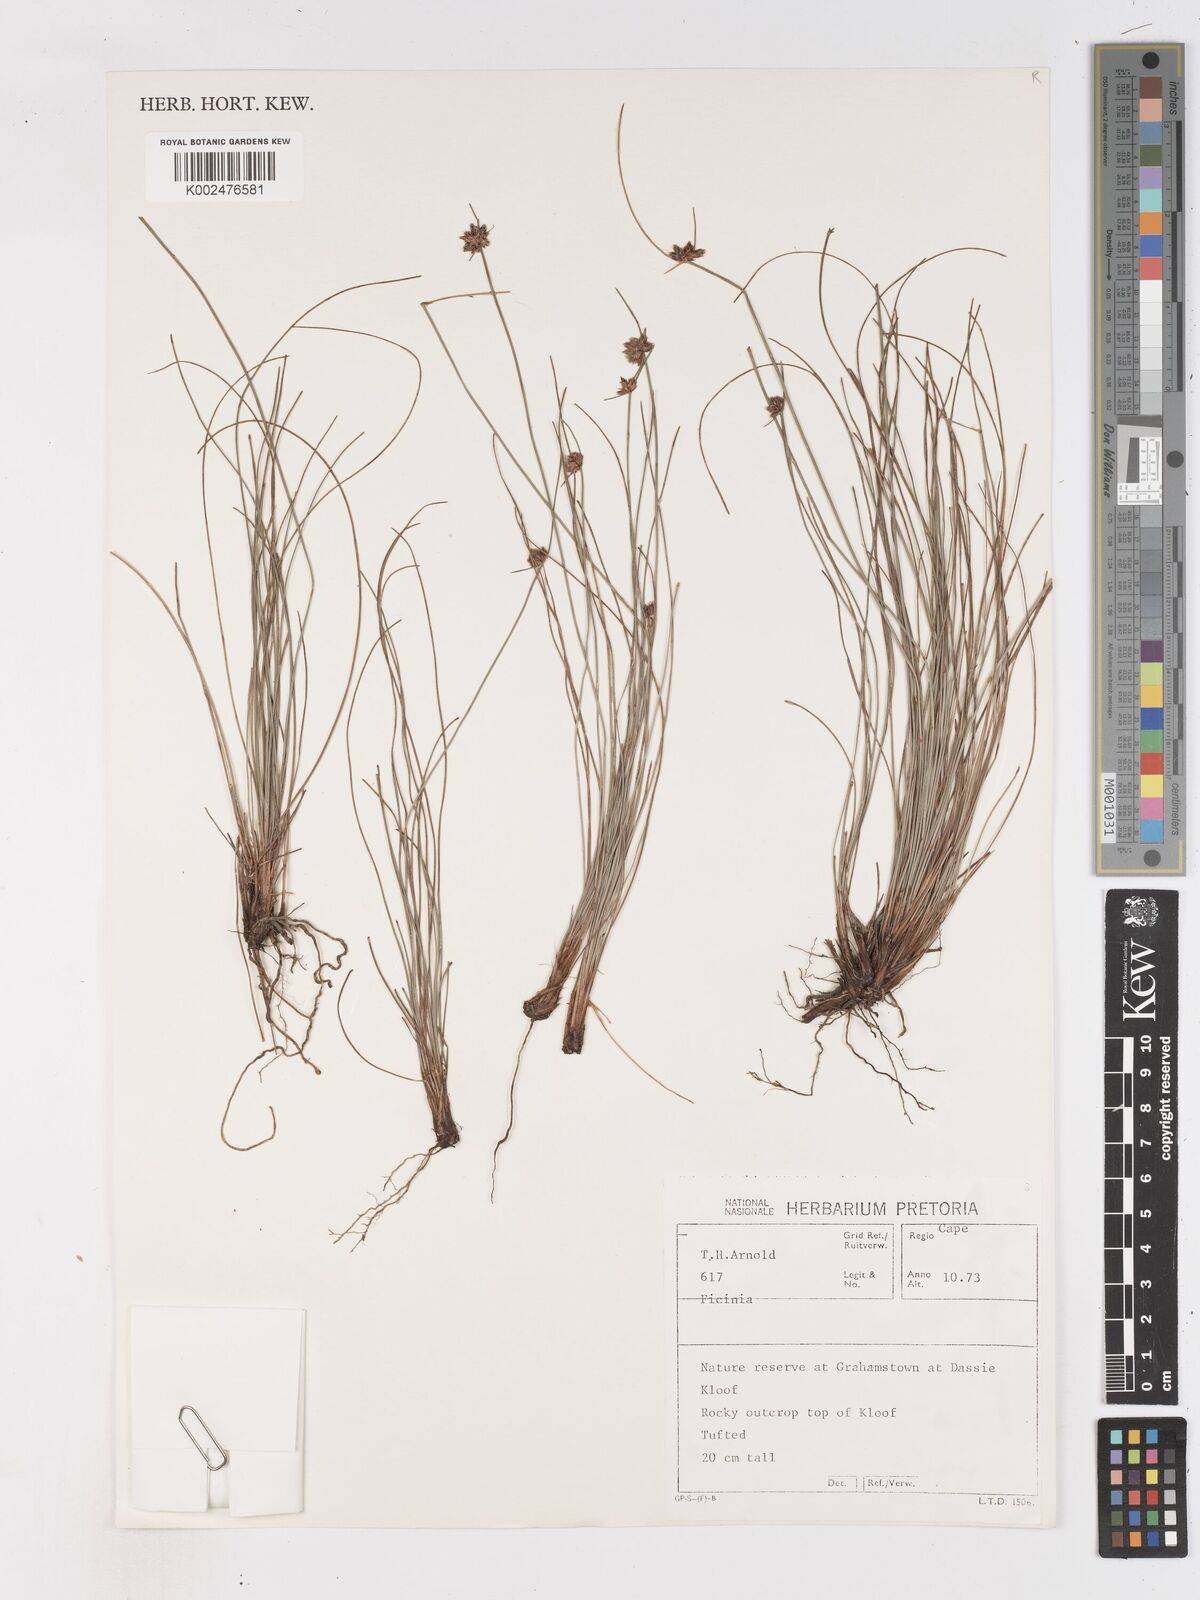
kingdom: Plantae
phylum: Tracheophyta
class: Liliopsida
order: Poales
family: Cyperaceae
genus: Ficinia
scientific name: Ficinia
